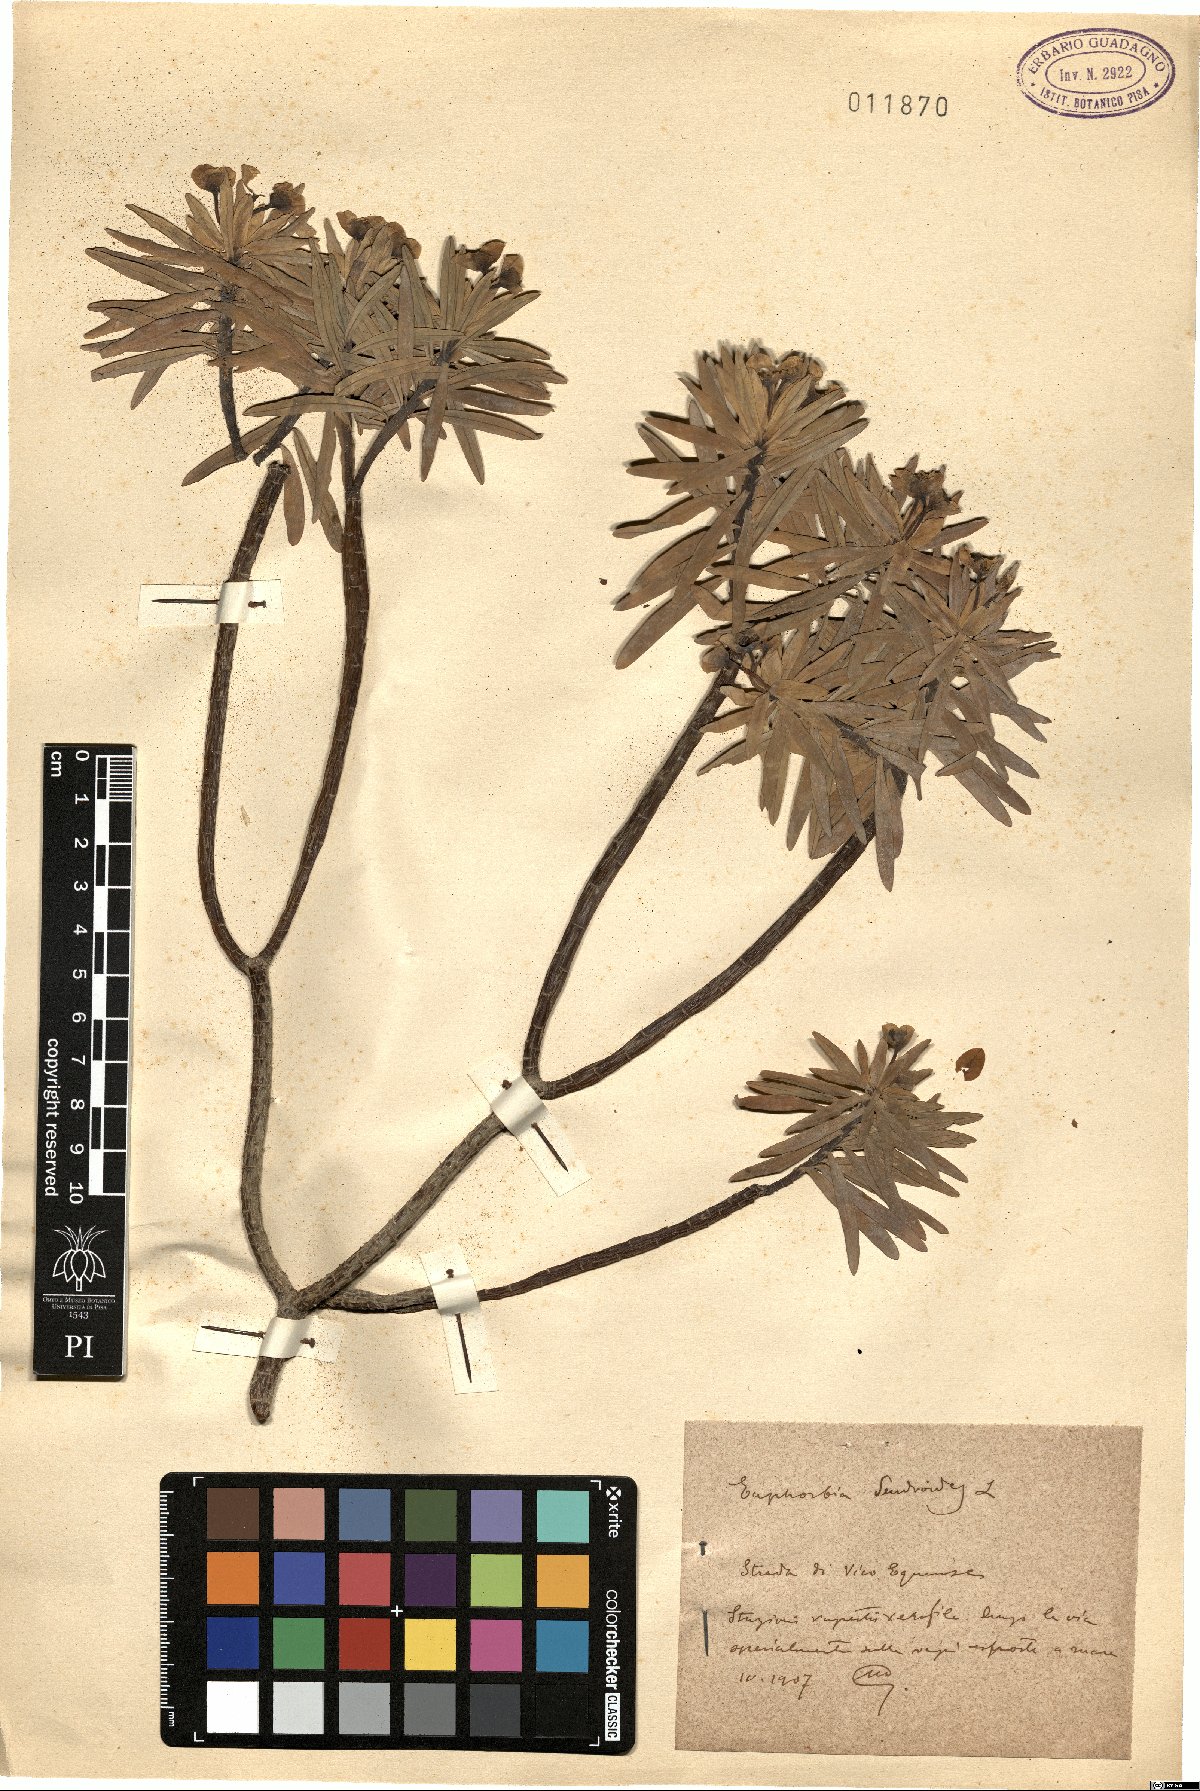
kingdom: Plantae
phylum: Tracheophyta
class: Magnoliopsida
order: Malpighiales
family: Euphorbiaceae
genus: Euphorbia
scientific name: Euphorbia dendroides
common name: Tree spurge
